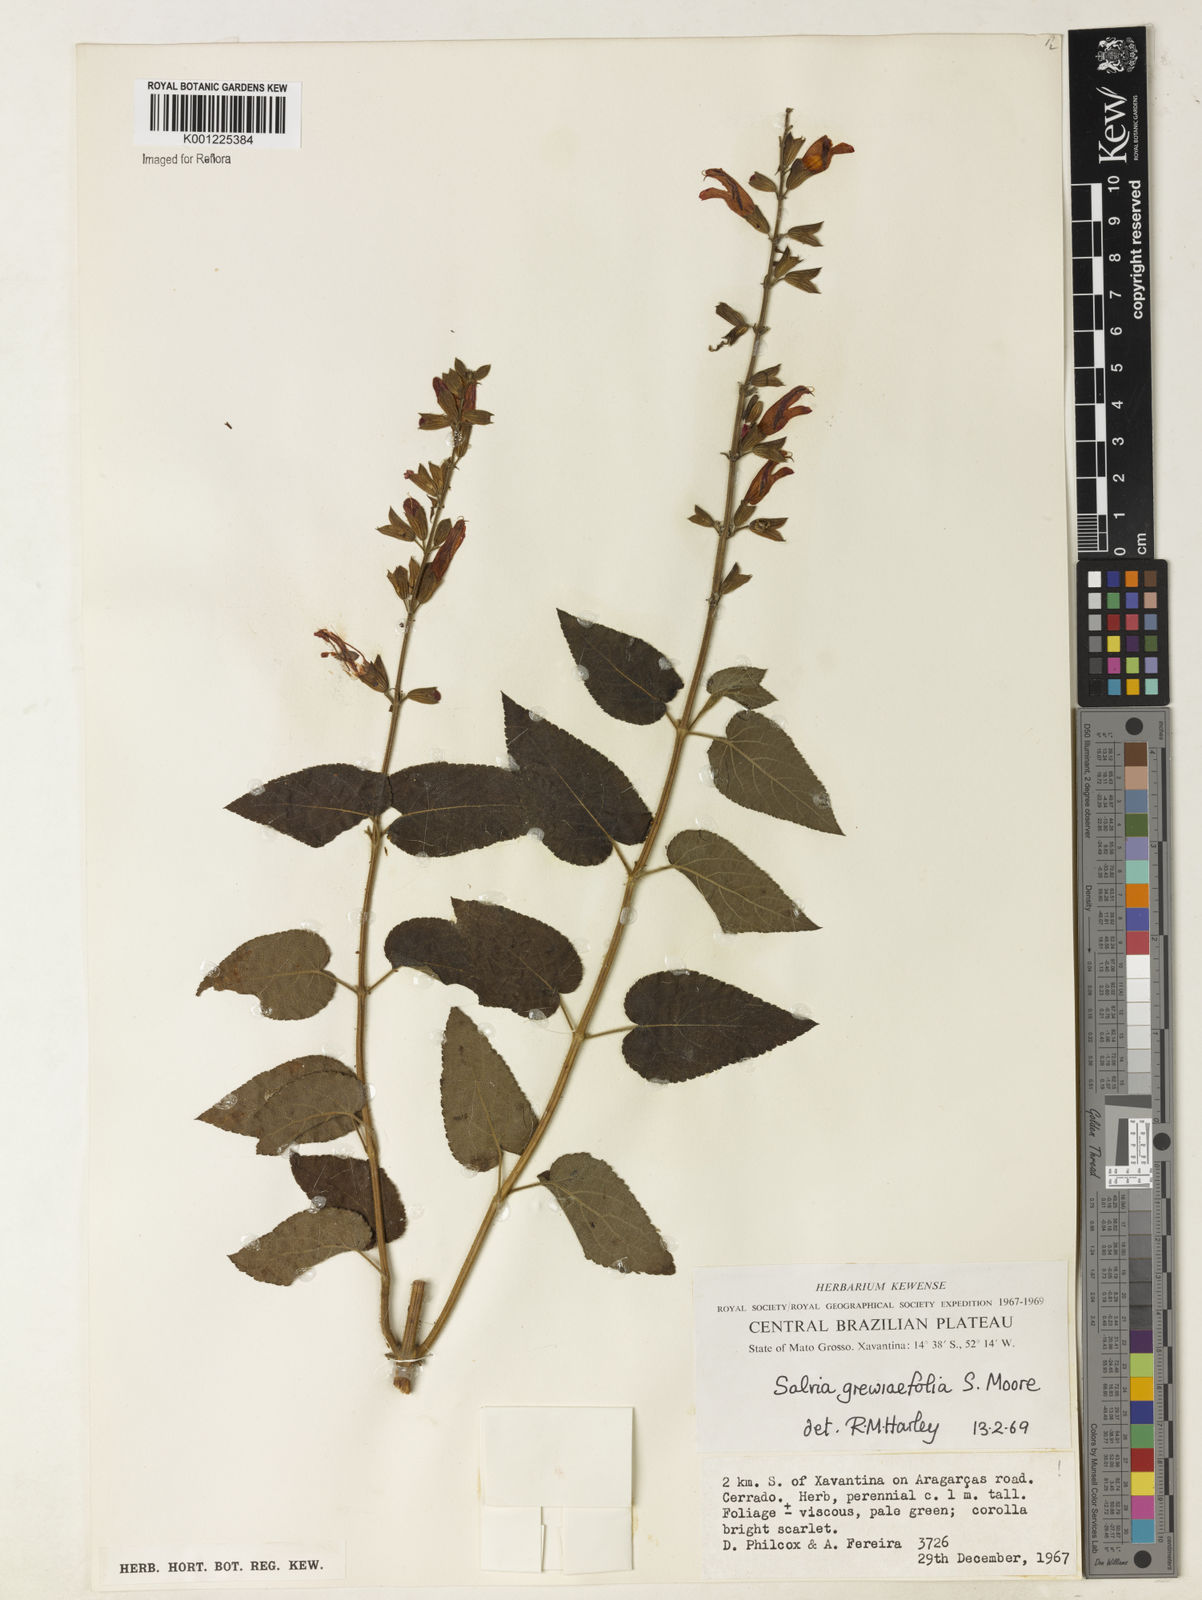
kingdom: Plantae
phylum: Tracheophyta
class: Magnoliopsida
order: Lamiales
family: Lamiaceae
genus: Salvia
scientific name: Salvia grewiifolia
